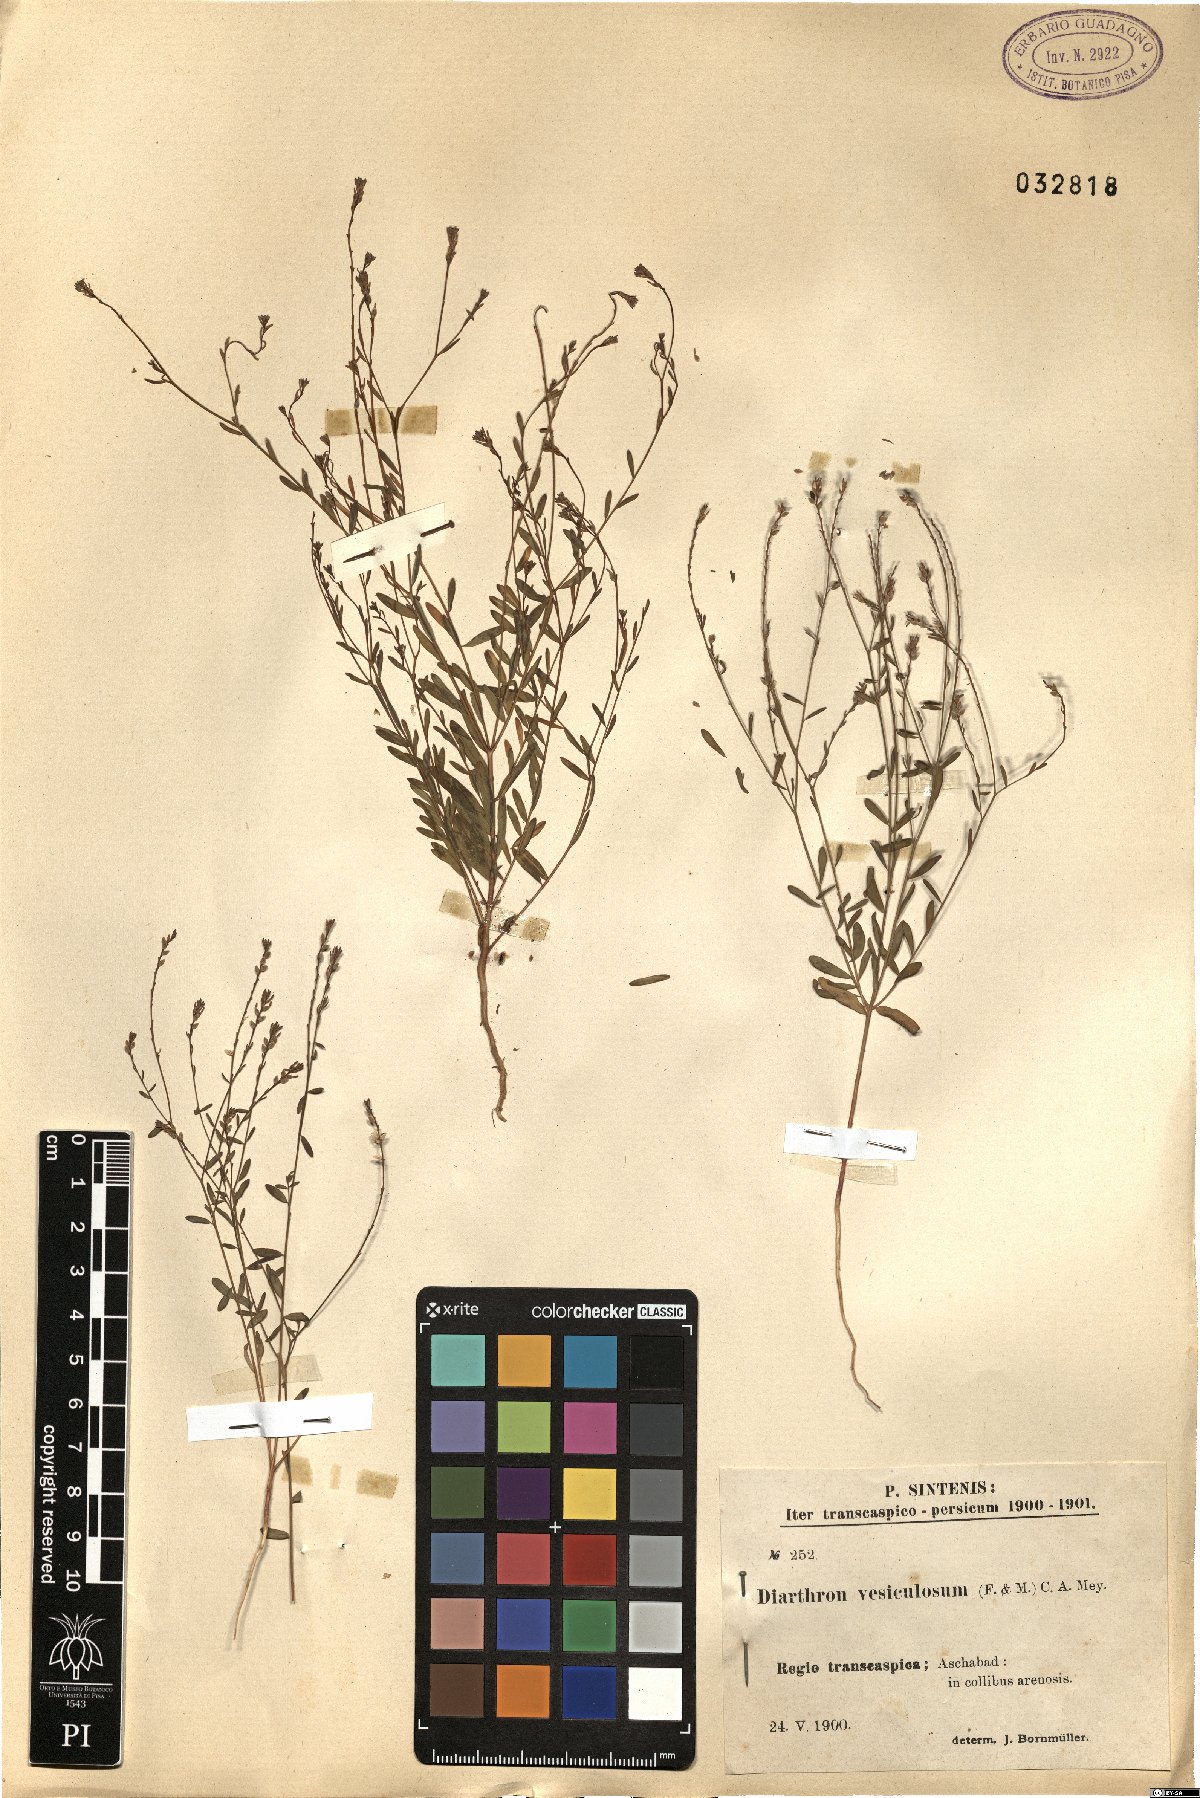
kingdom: Plantae
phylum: Tracheophyta
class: Magnoliopsida
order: Malvales
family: Thymelaeaceae
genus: Diarthron
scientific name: Diarthron vesiculosum
